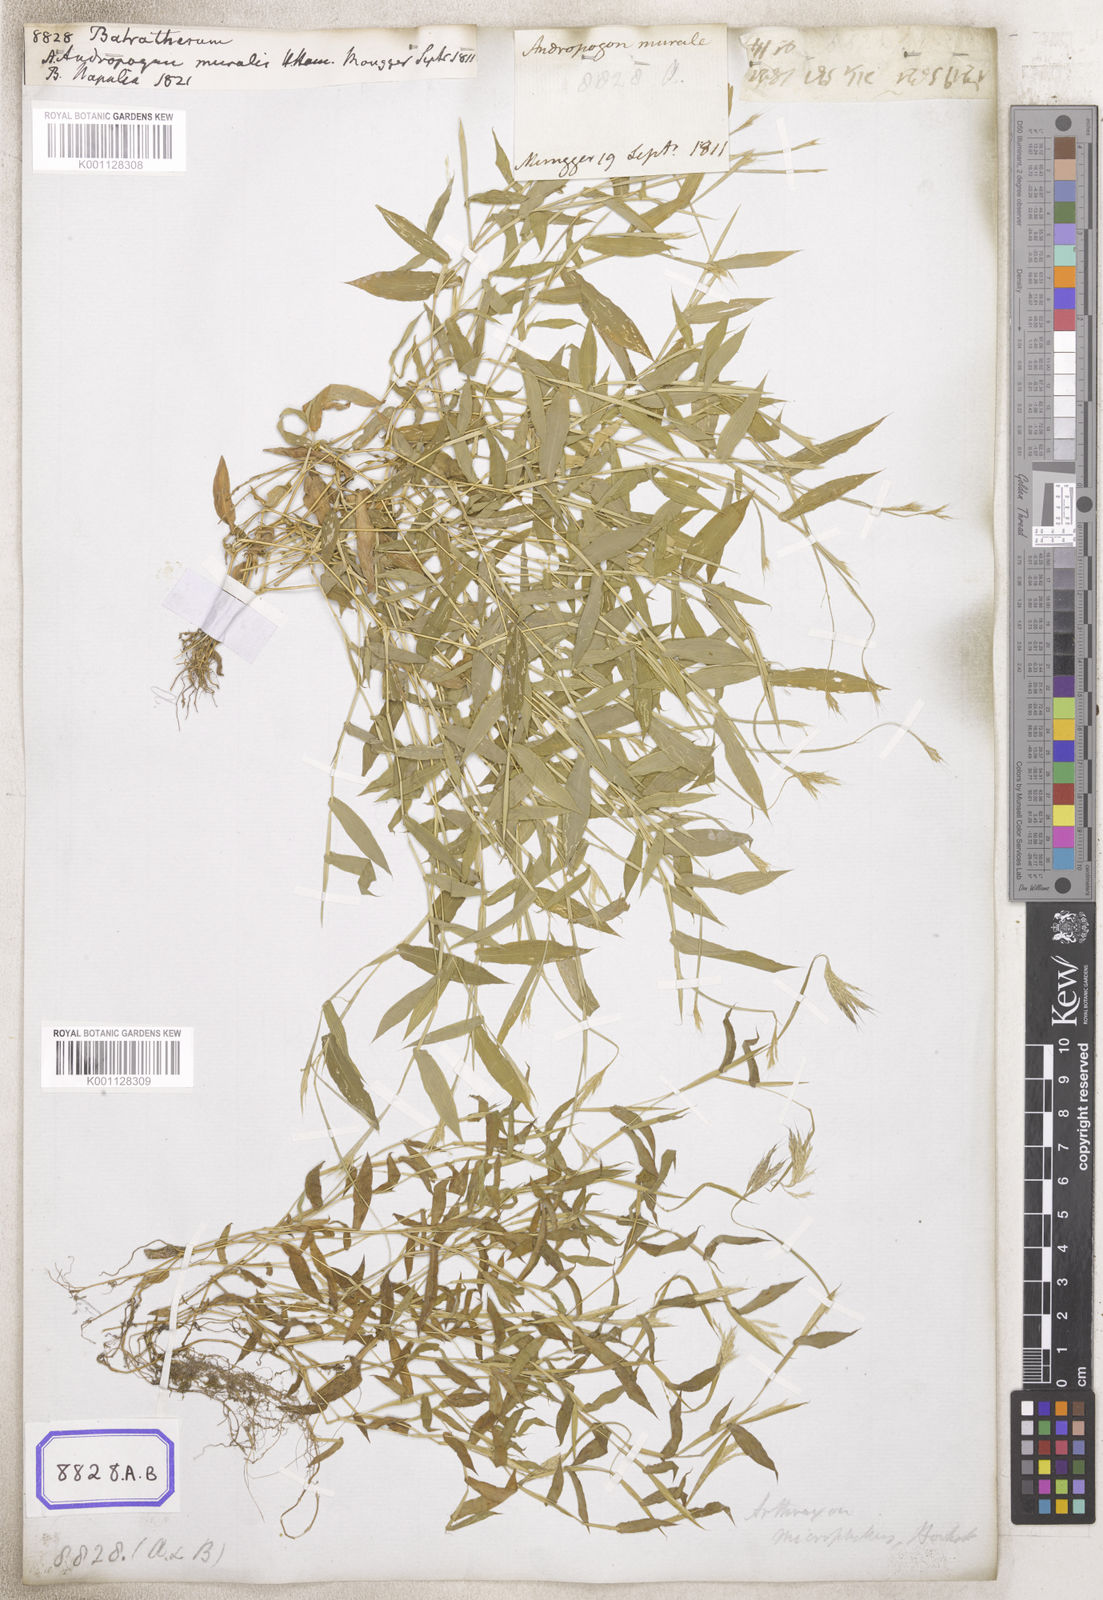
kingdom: Plantae
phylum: Tracheophyta
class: Liliopsida
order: Poales
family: Poaceae
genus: Arthraxon
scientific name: Arthraxon
